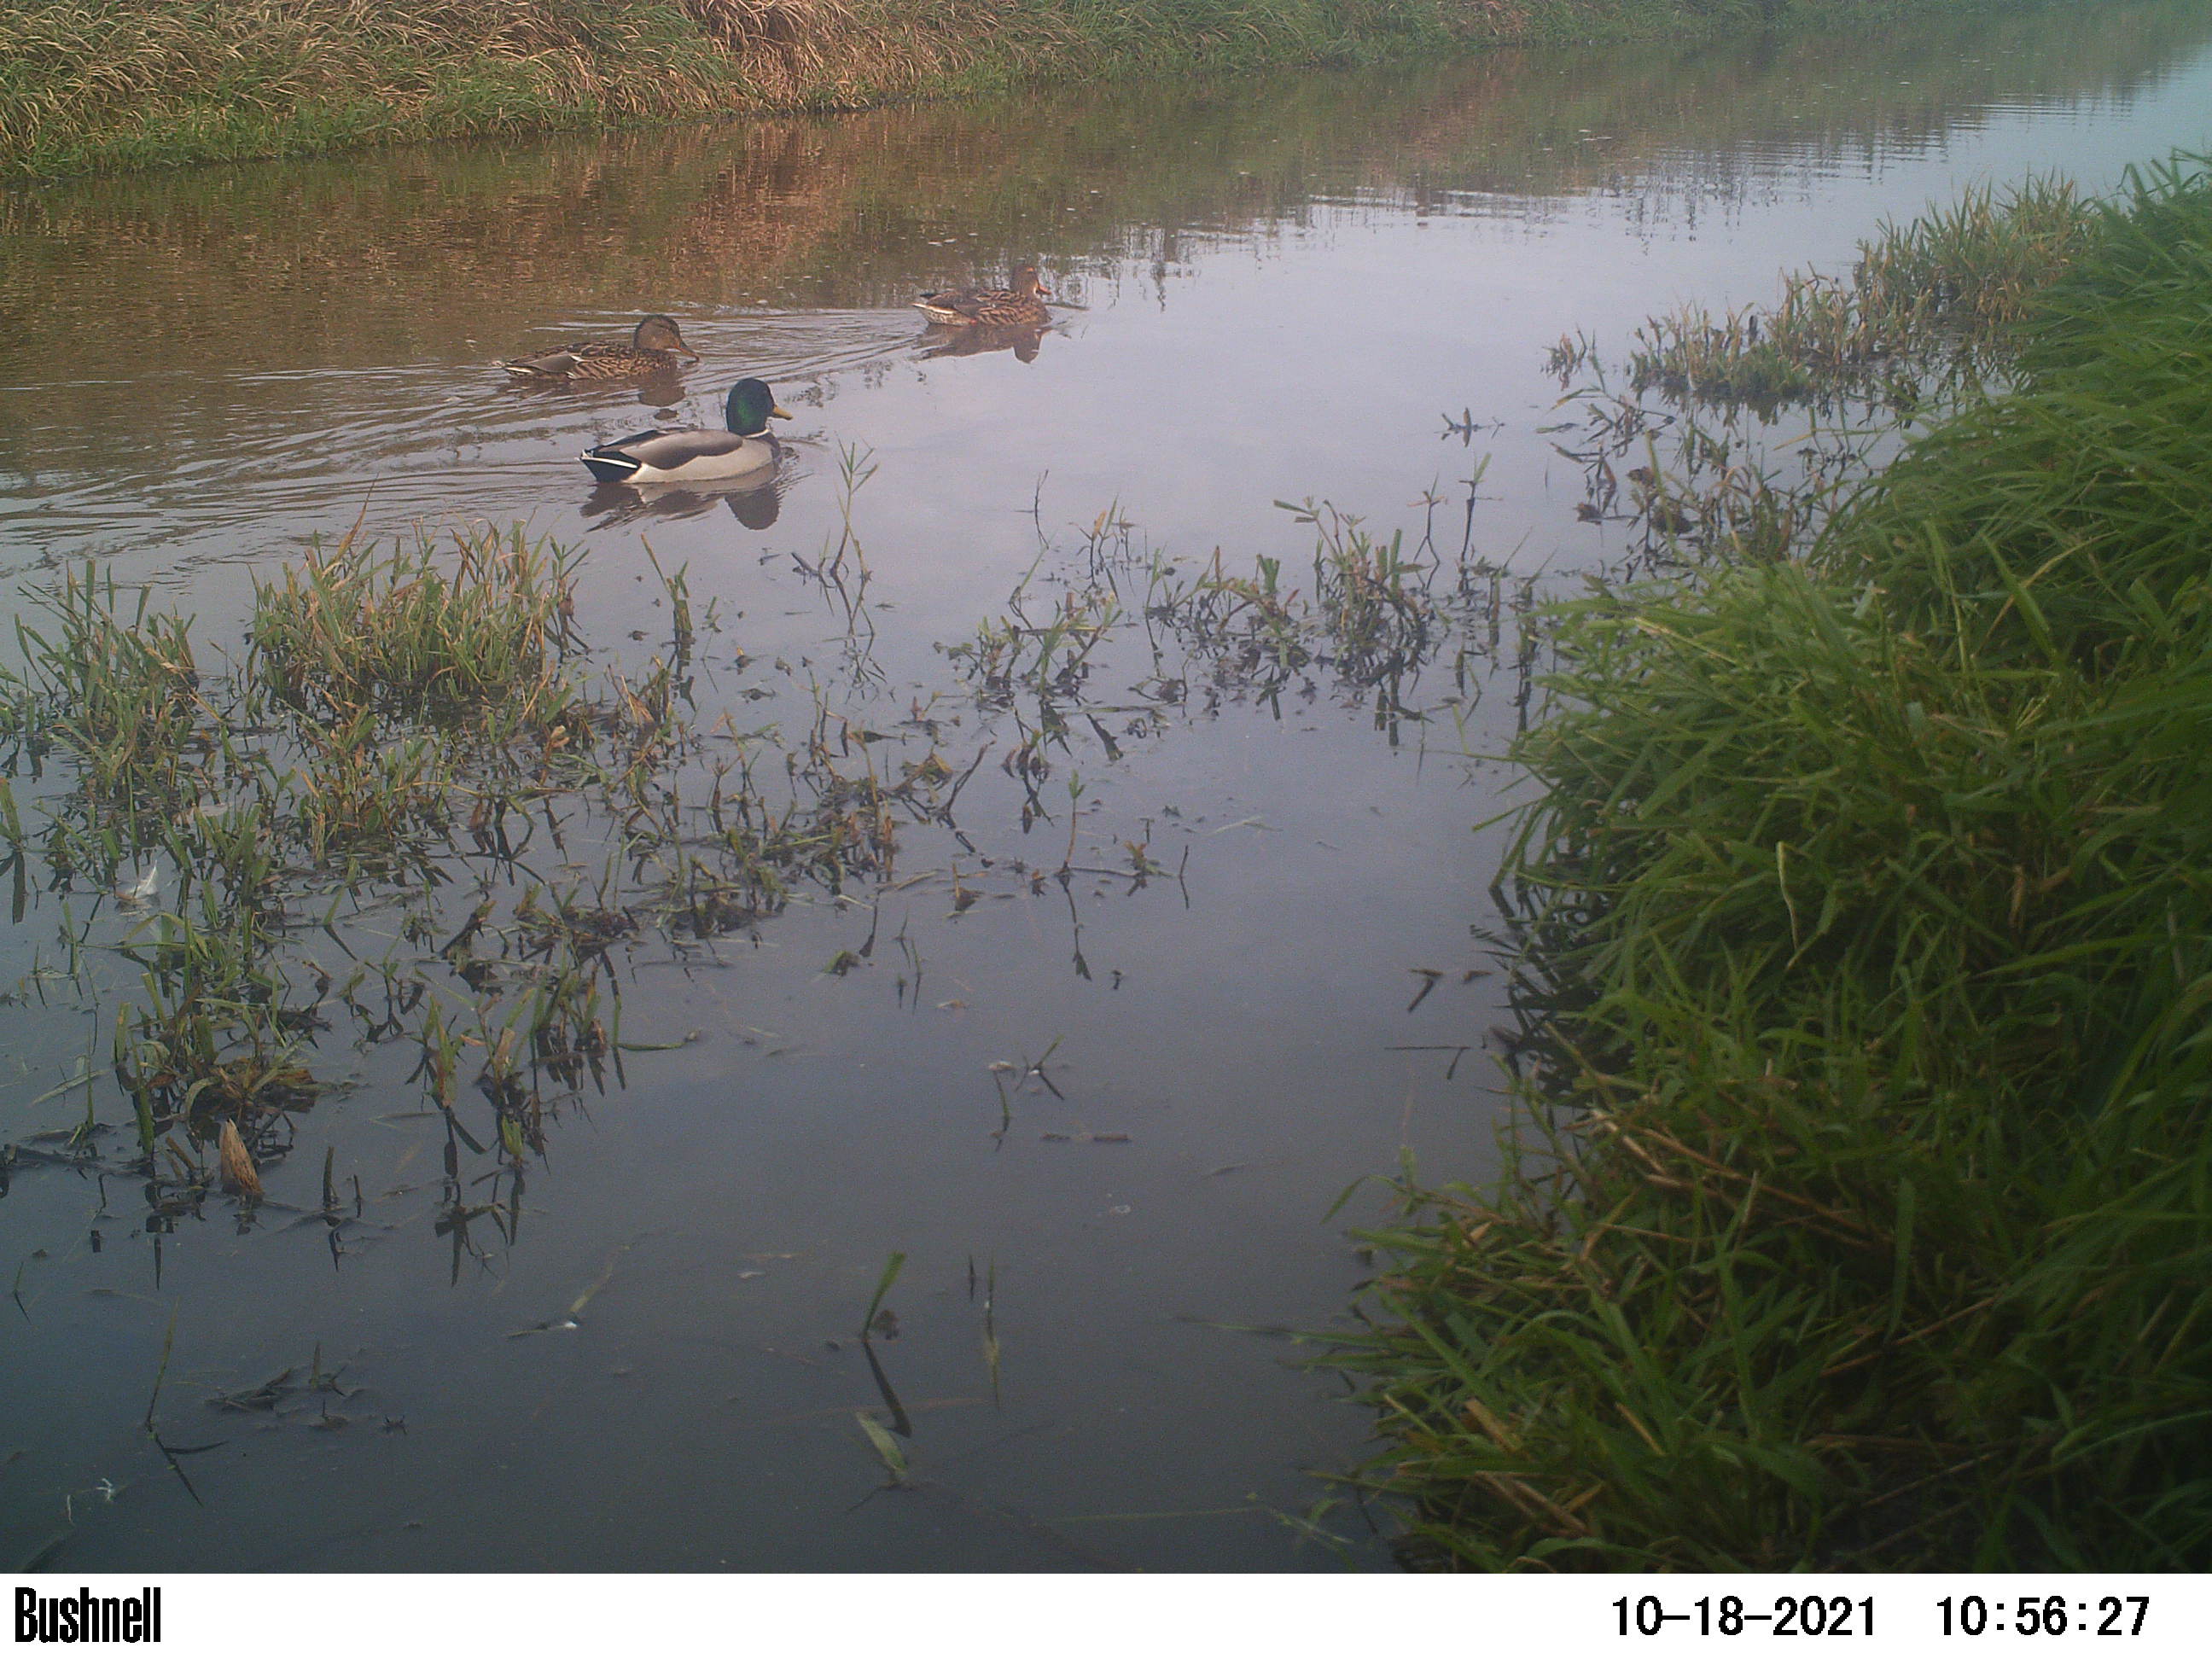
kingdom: Animalia
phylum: Chordata
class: Aves
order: Anseriformes
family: Anatidae
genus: Anas
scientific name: Anas
